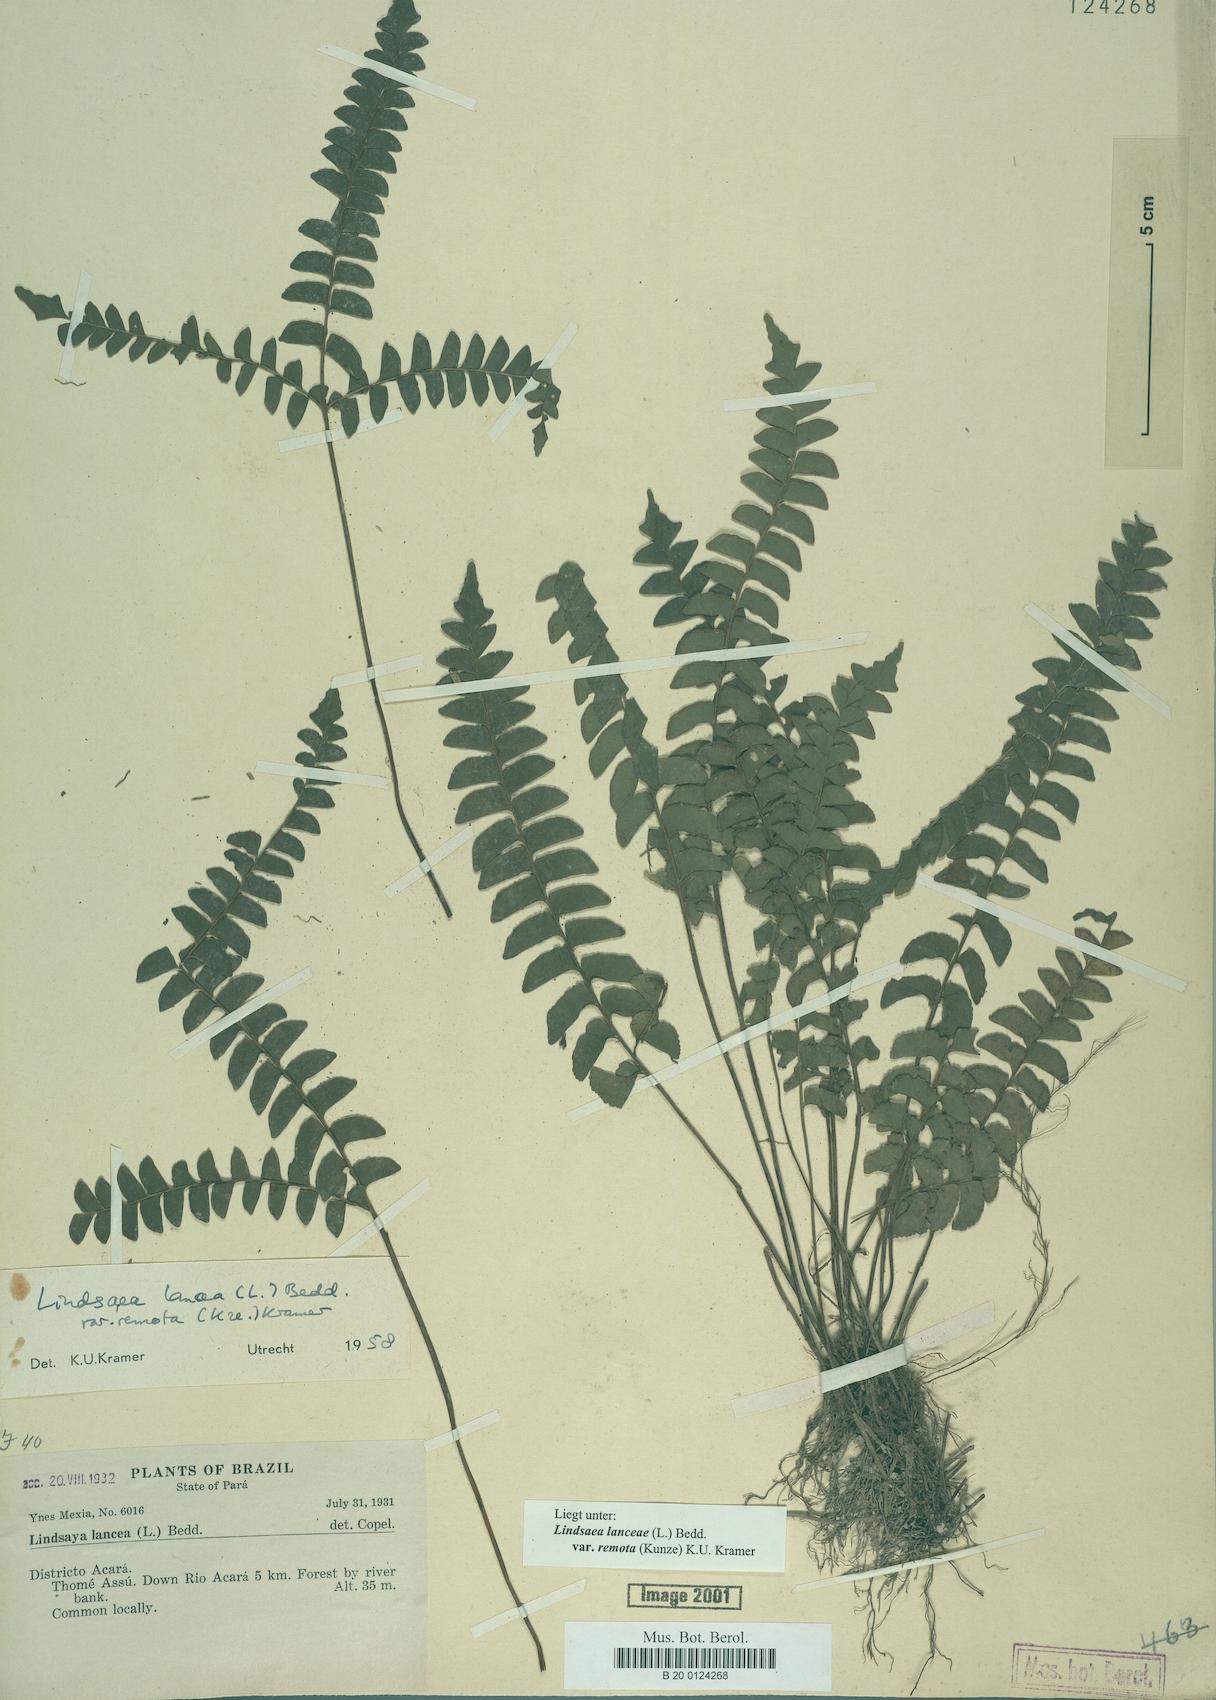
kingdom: Plantae
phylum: Tracheophyta
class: Polypodiopsida
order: Polypodiales
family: Lindsaeaceae
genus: Lindsaea
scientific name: Lindsaea lancea
